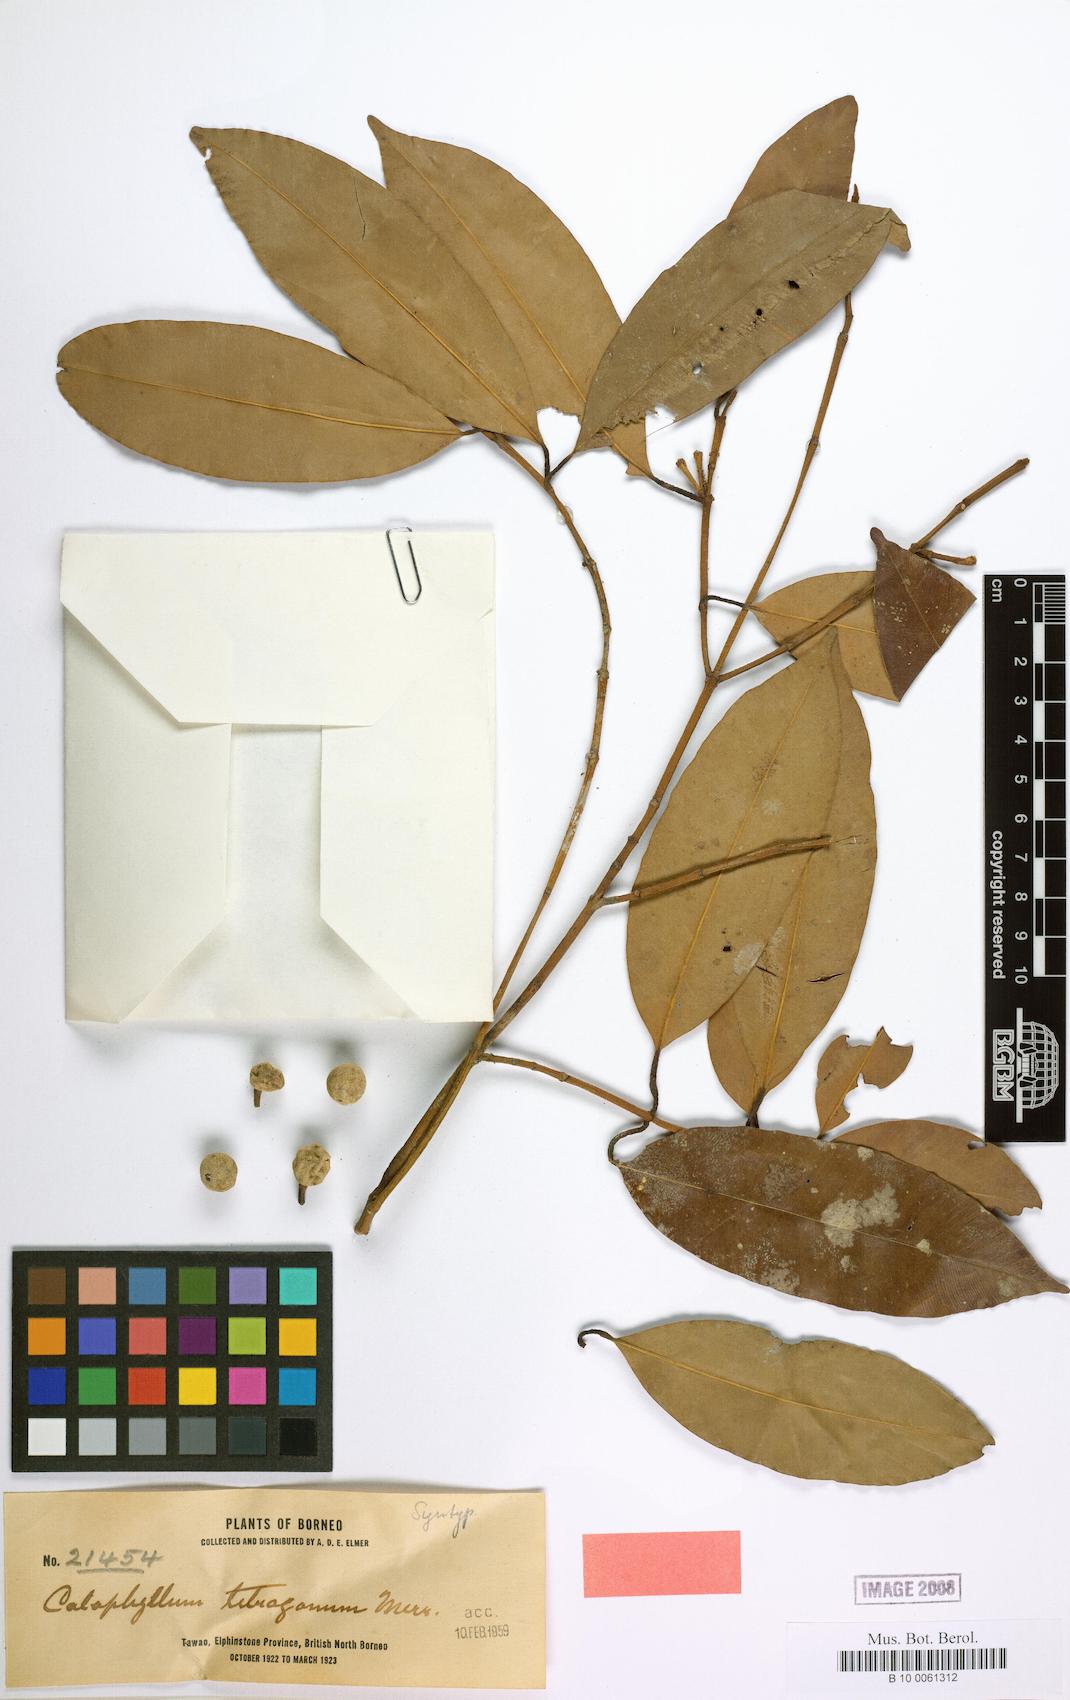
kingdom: Plantae
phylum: Tracheophyta
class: Magnoliopsida
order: Malpighiales
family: Calophyllaceae
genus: Calophyllum
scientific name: Calophyllum gracilipes
